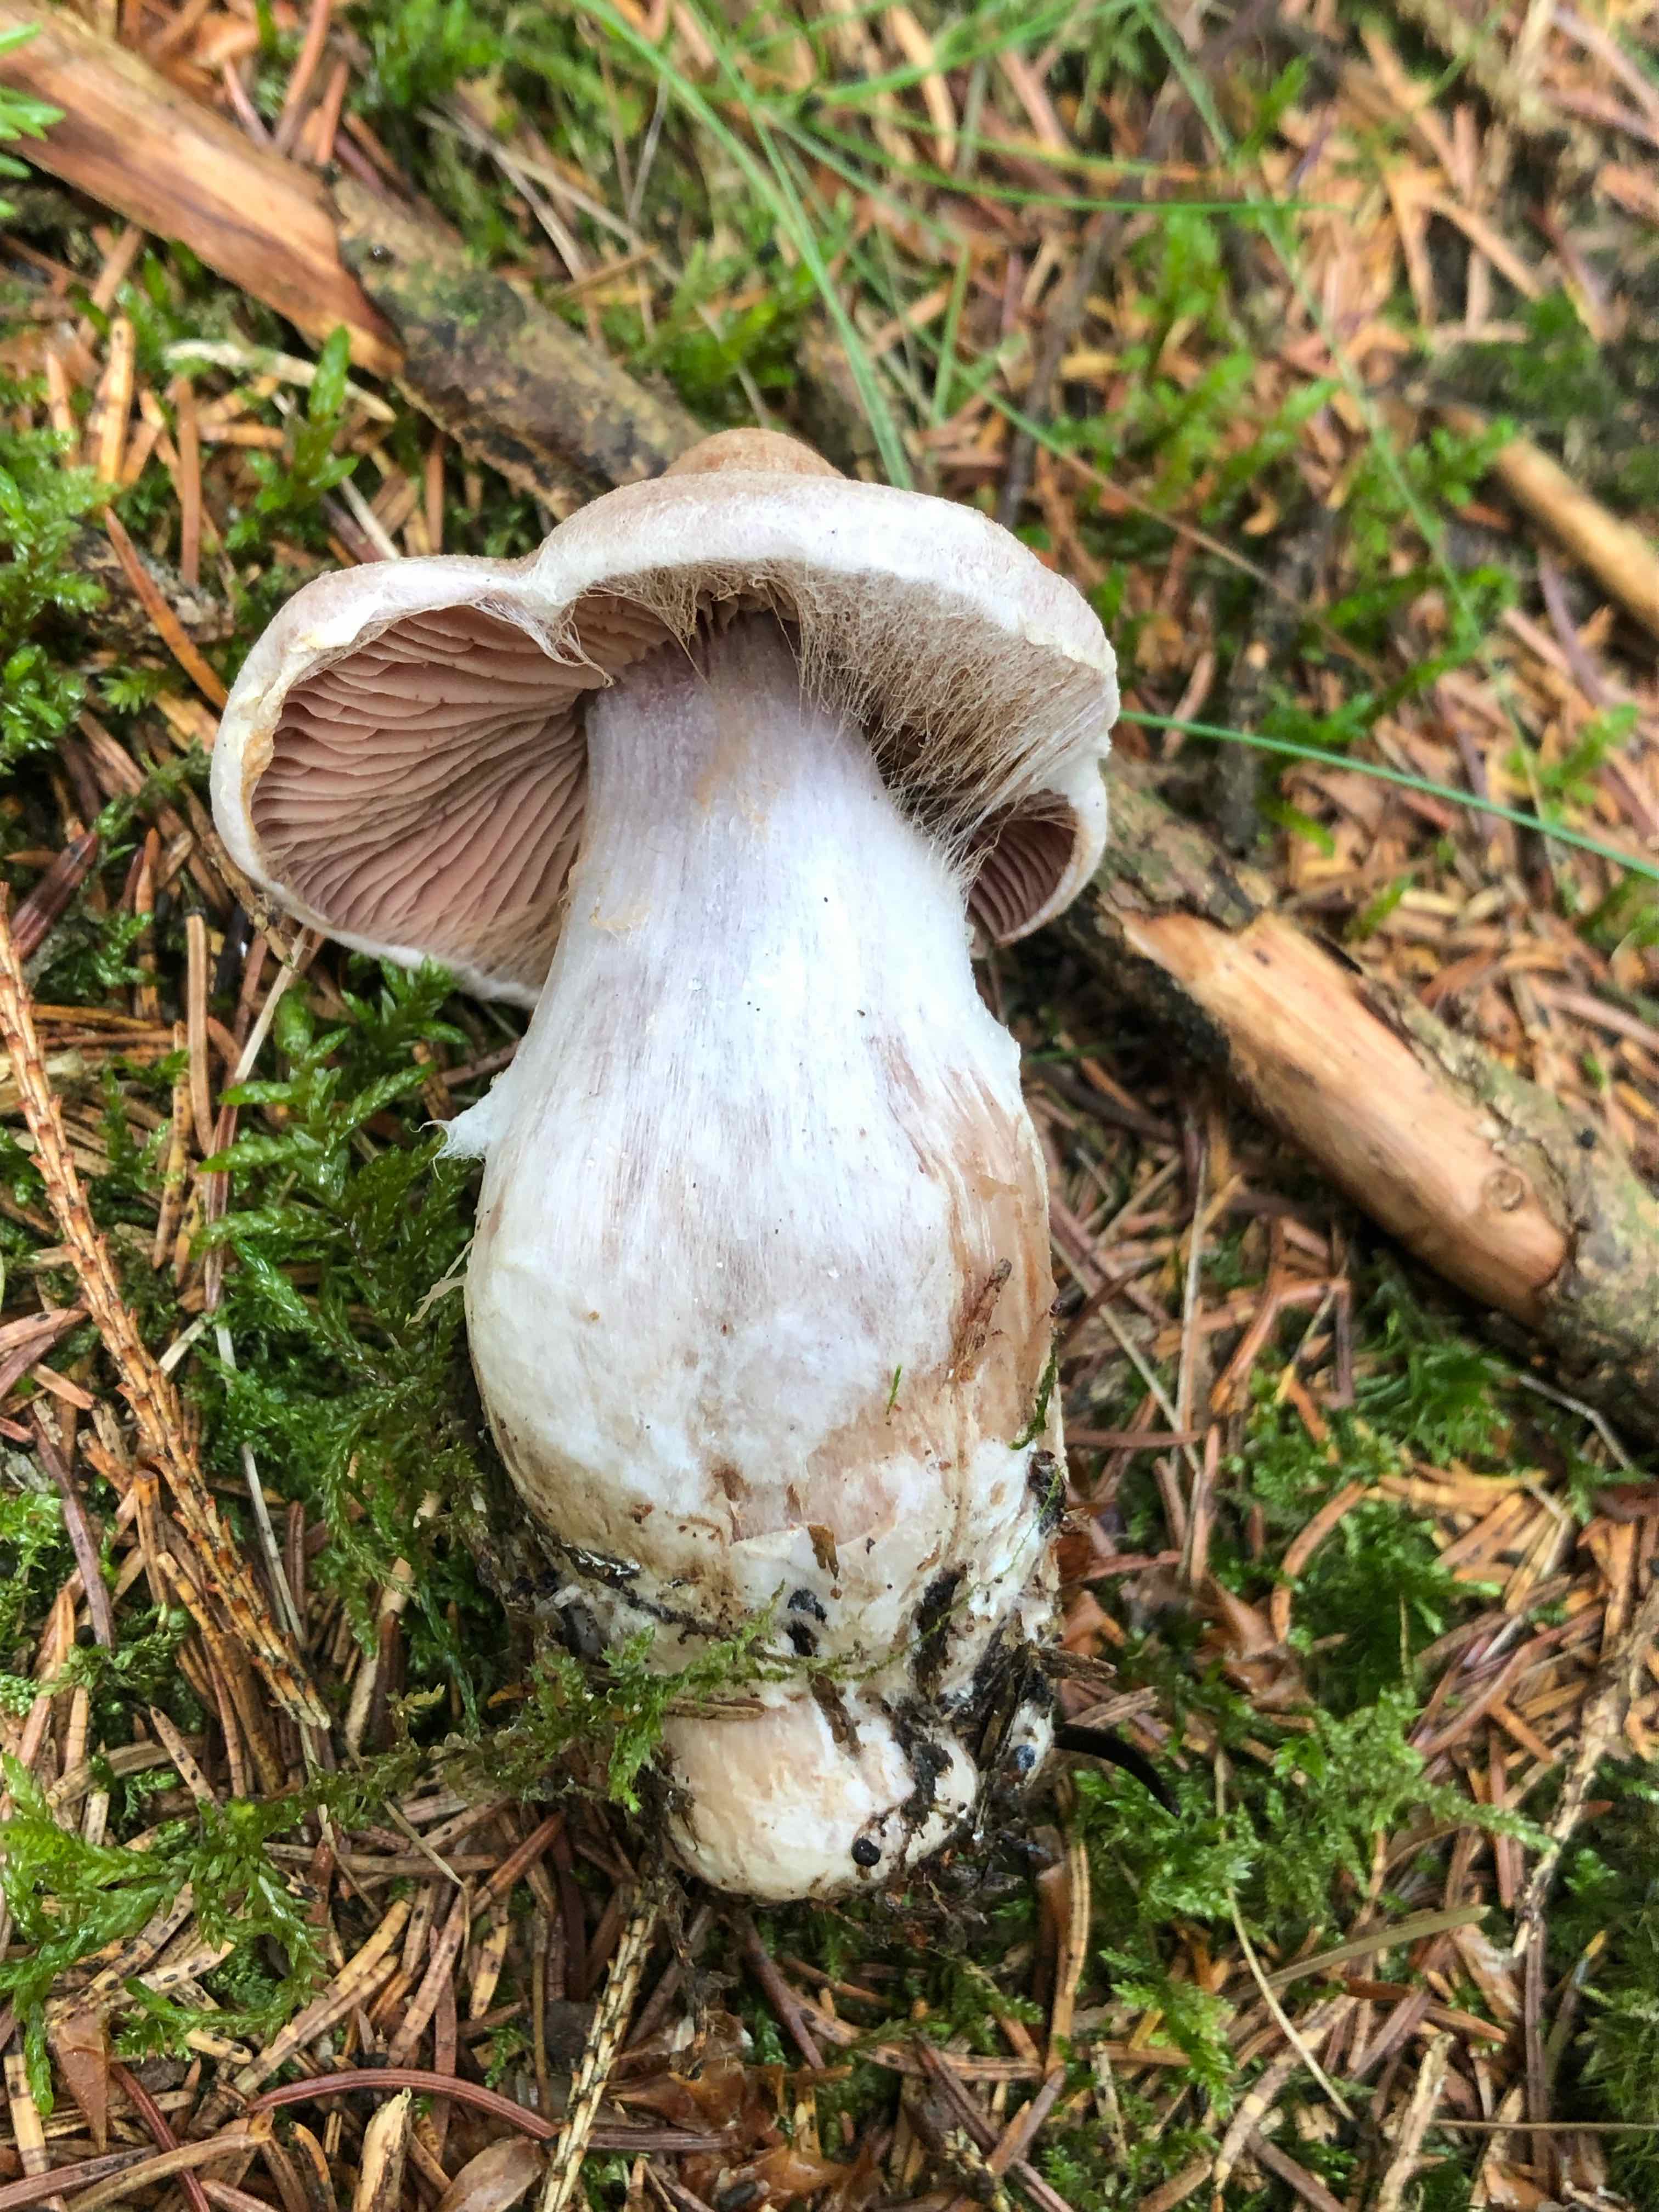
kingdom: Fungi
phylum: Basidiomycota
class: Agaricomycetes
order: Agaricales
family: Cortinariaceae
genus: Cortinarius
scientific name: Cortinarius malachius
